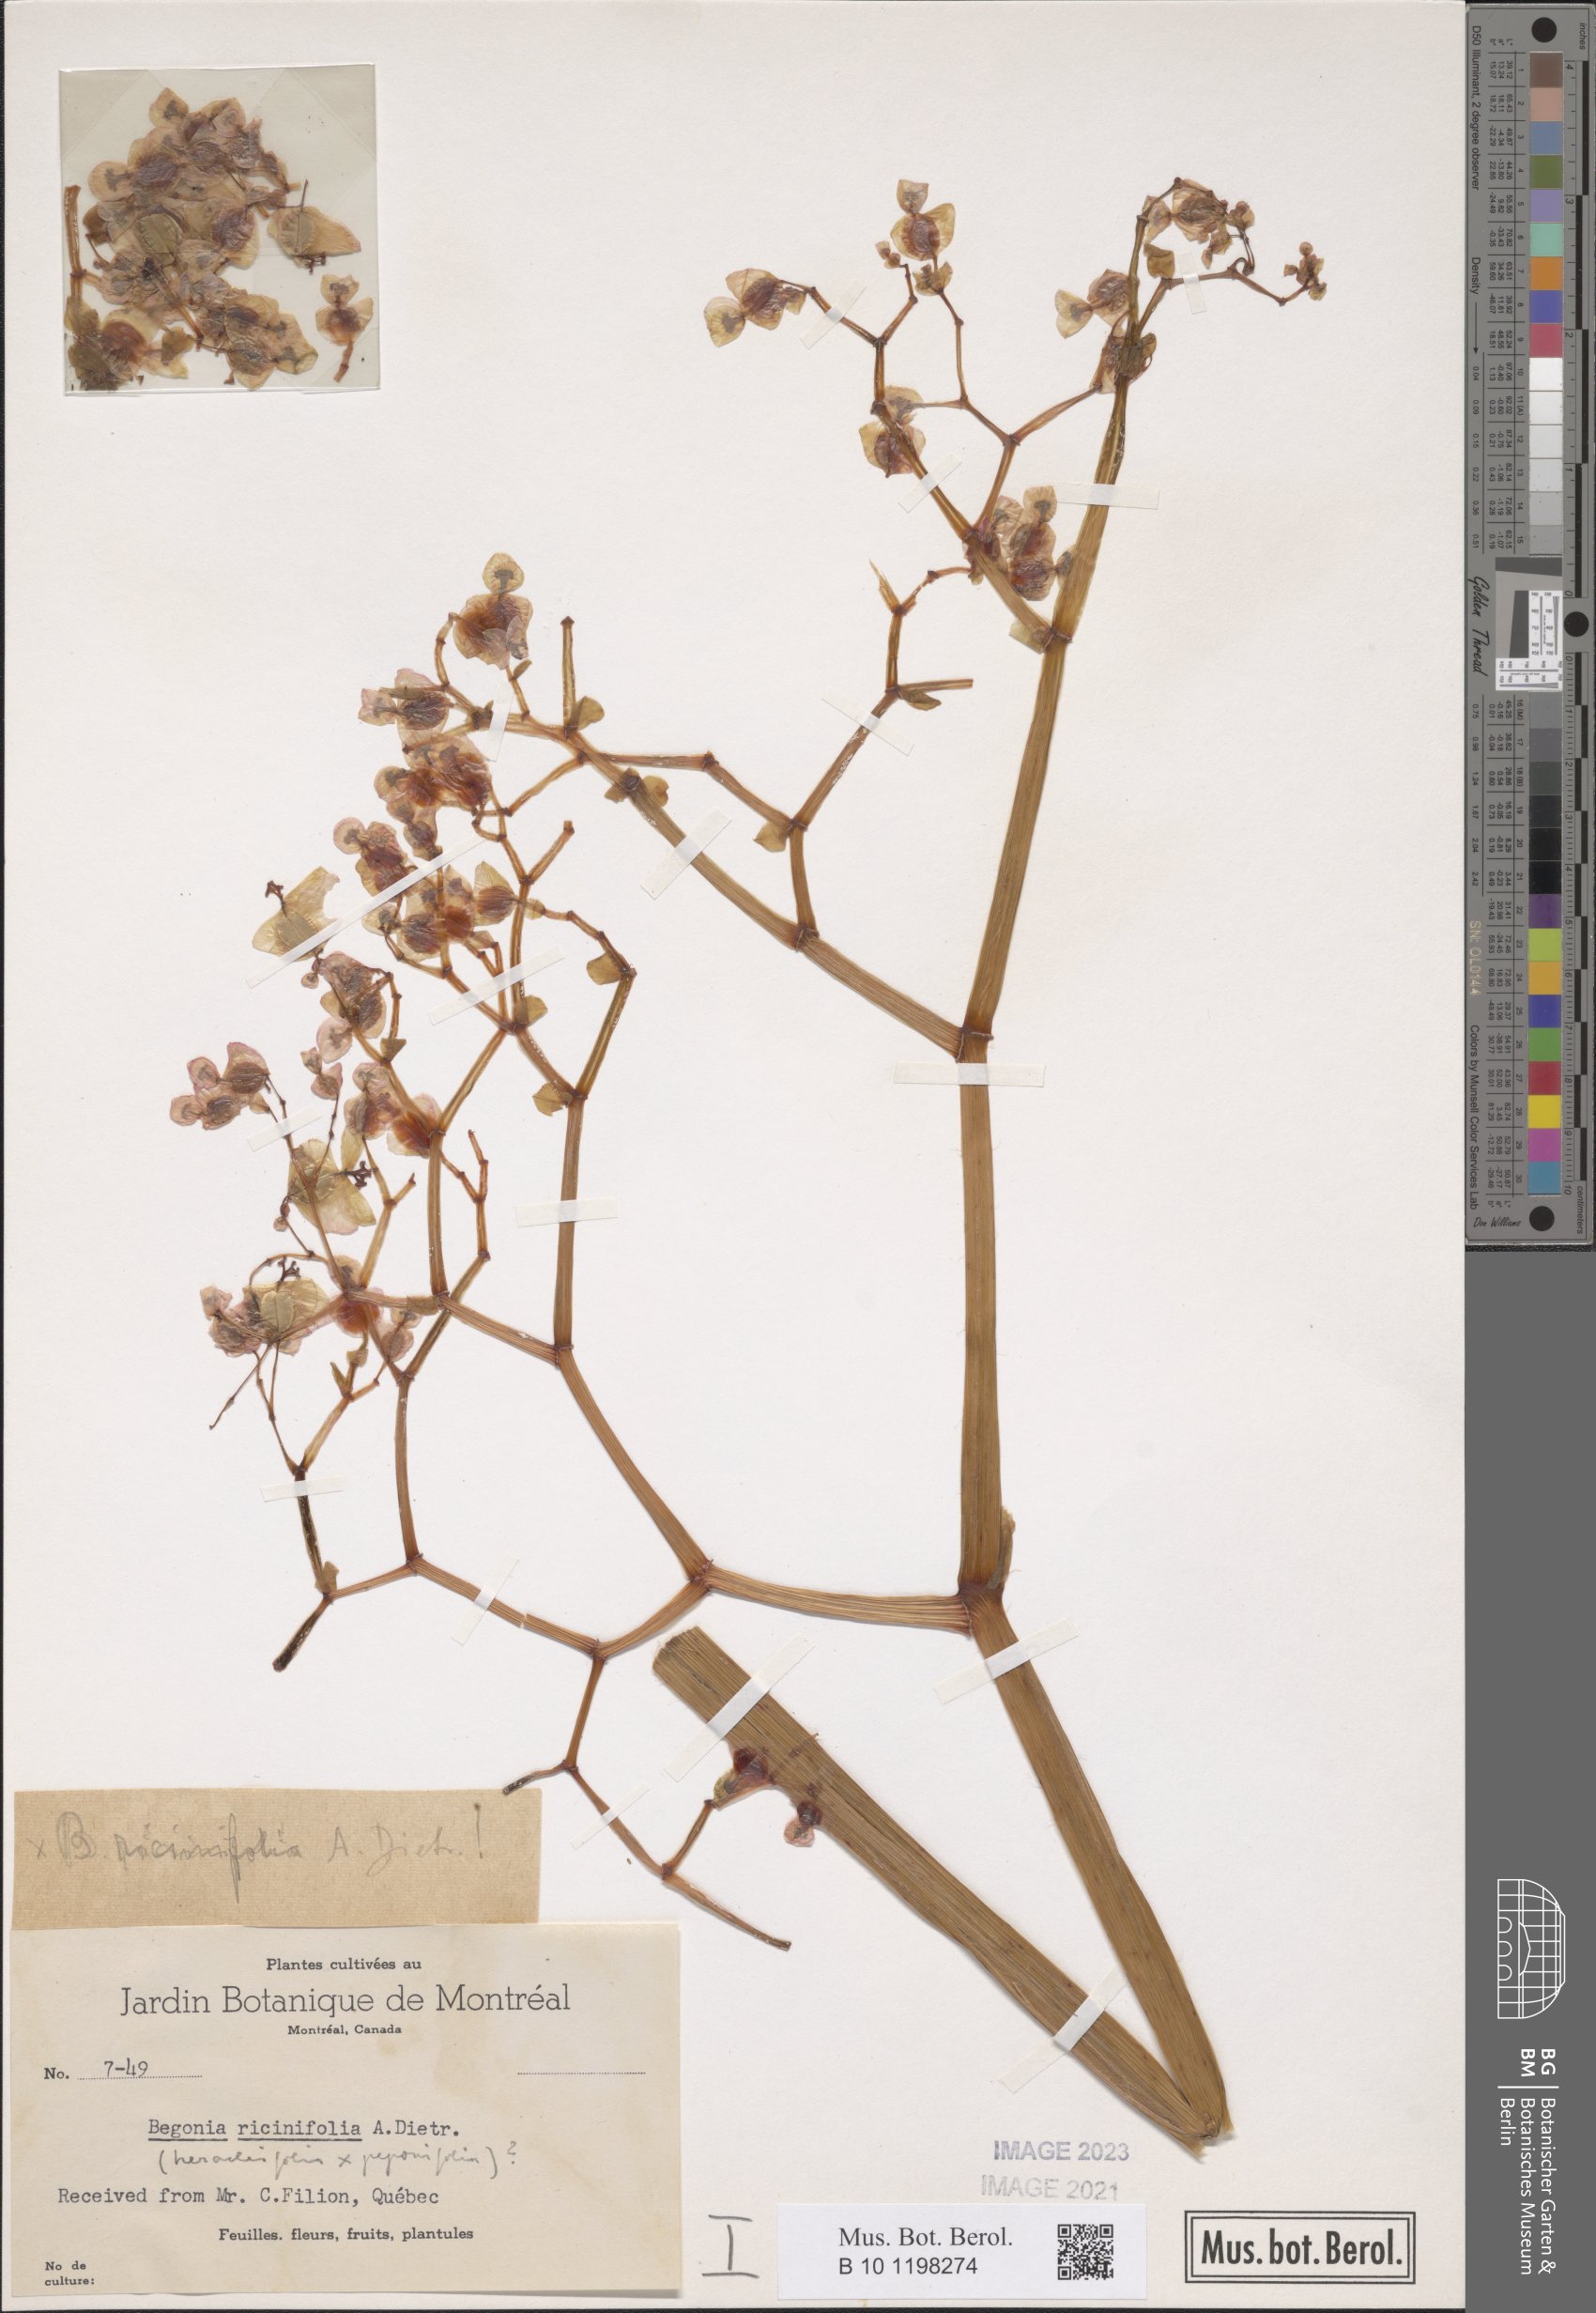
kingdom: Plantae
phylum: Tracheophyta
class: Magnoliopsida
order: Cucurbitales
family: Begoniaceae
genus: Begonia
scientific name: Begonia ricinifolia
